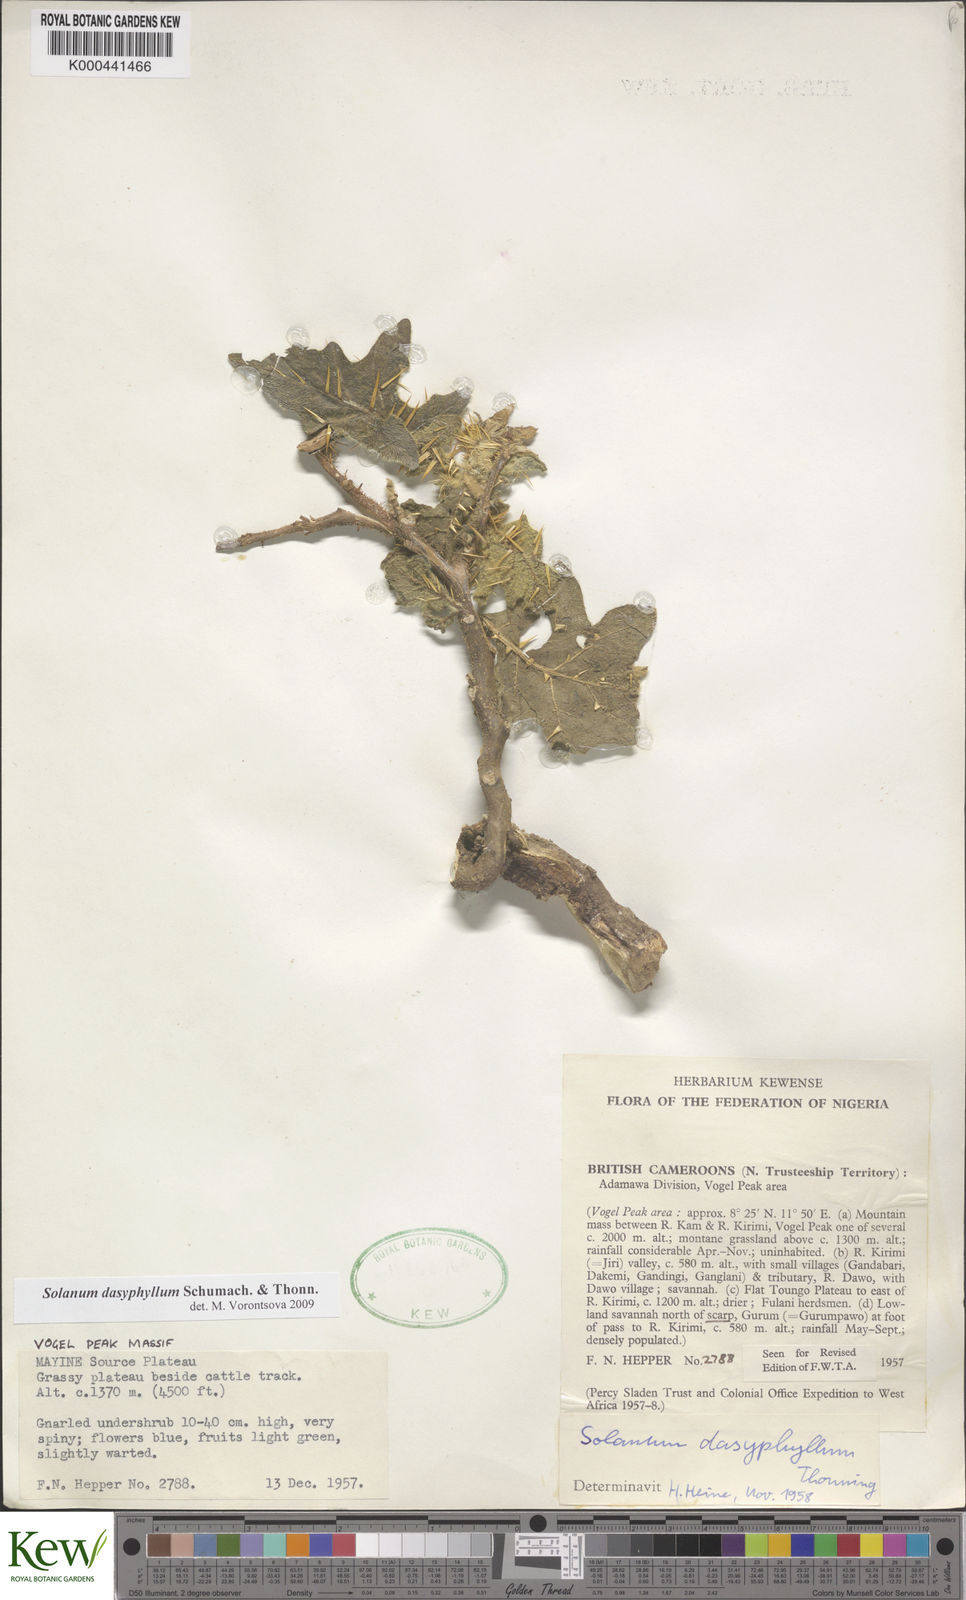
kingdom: Plantae
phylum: Tracheophyta
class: Magnoliopsida
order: Solanales
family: Solanaceae
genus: Solanum
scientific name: Solanum dasyphyllum
